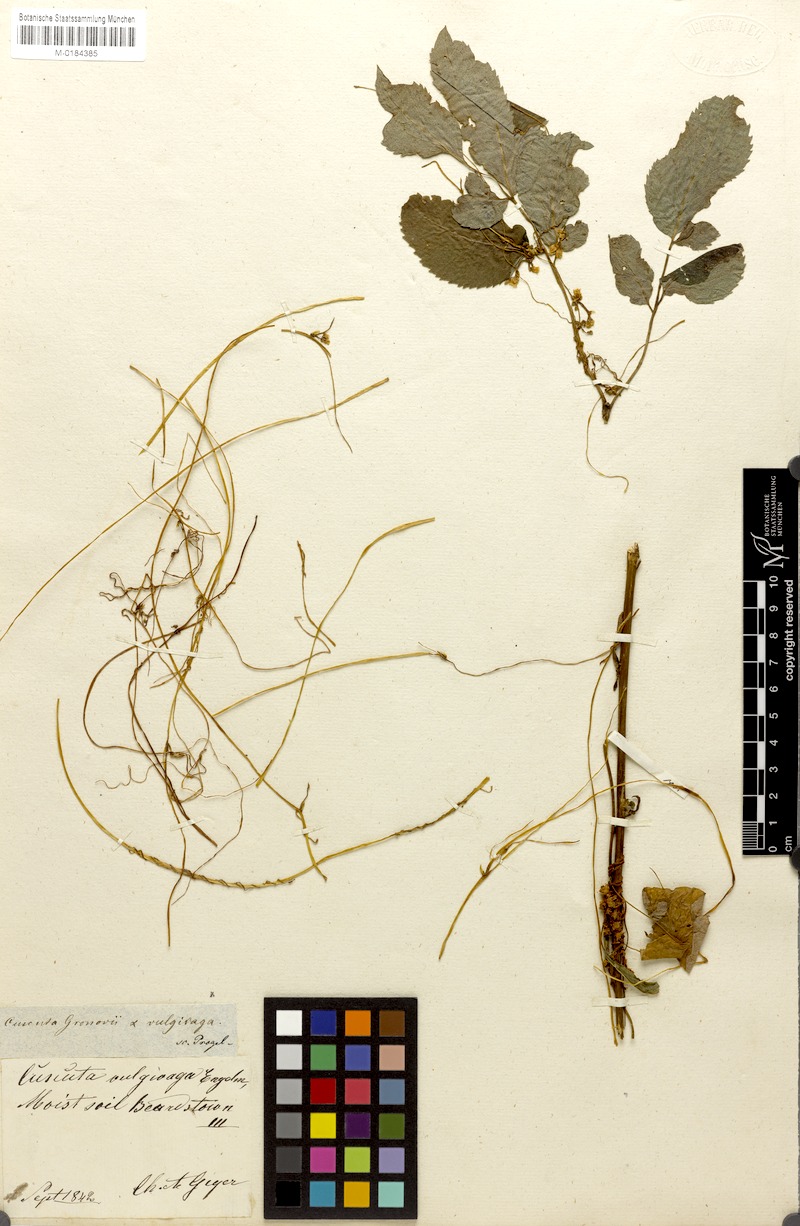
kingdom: Plantae
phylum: Tracheophyta
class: Magnoliopsida
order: Solanales
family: Convolvulaceae
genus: Cuscuta
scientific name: Cuscuta gronovii
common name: Common dodder
